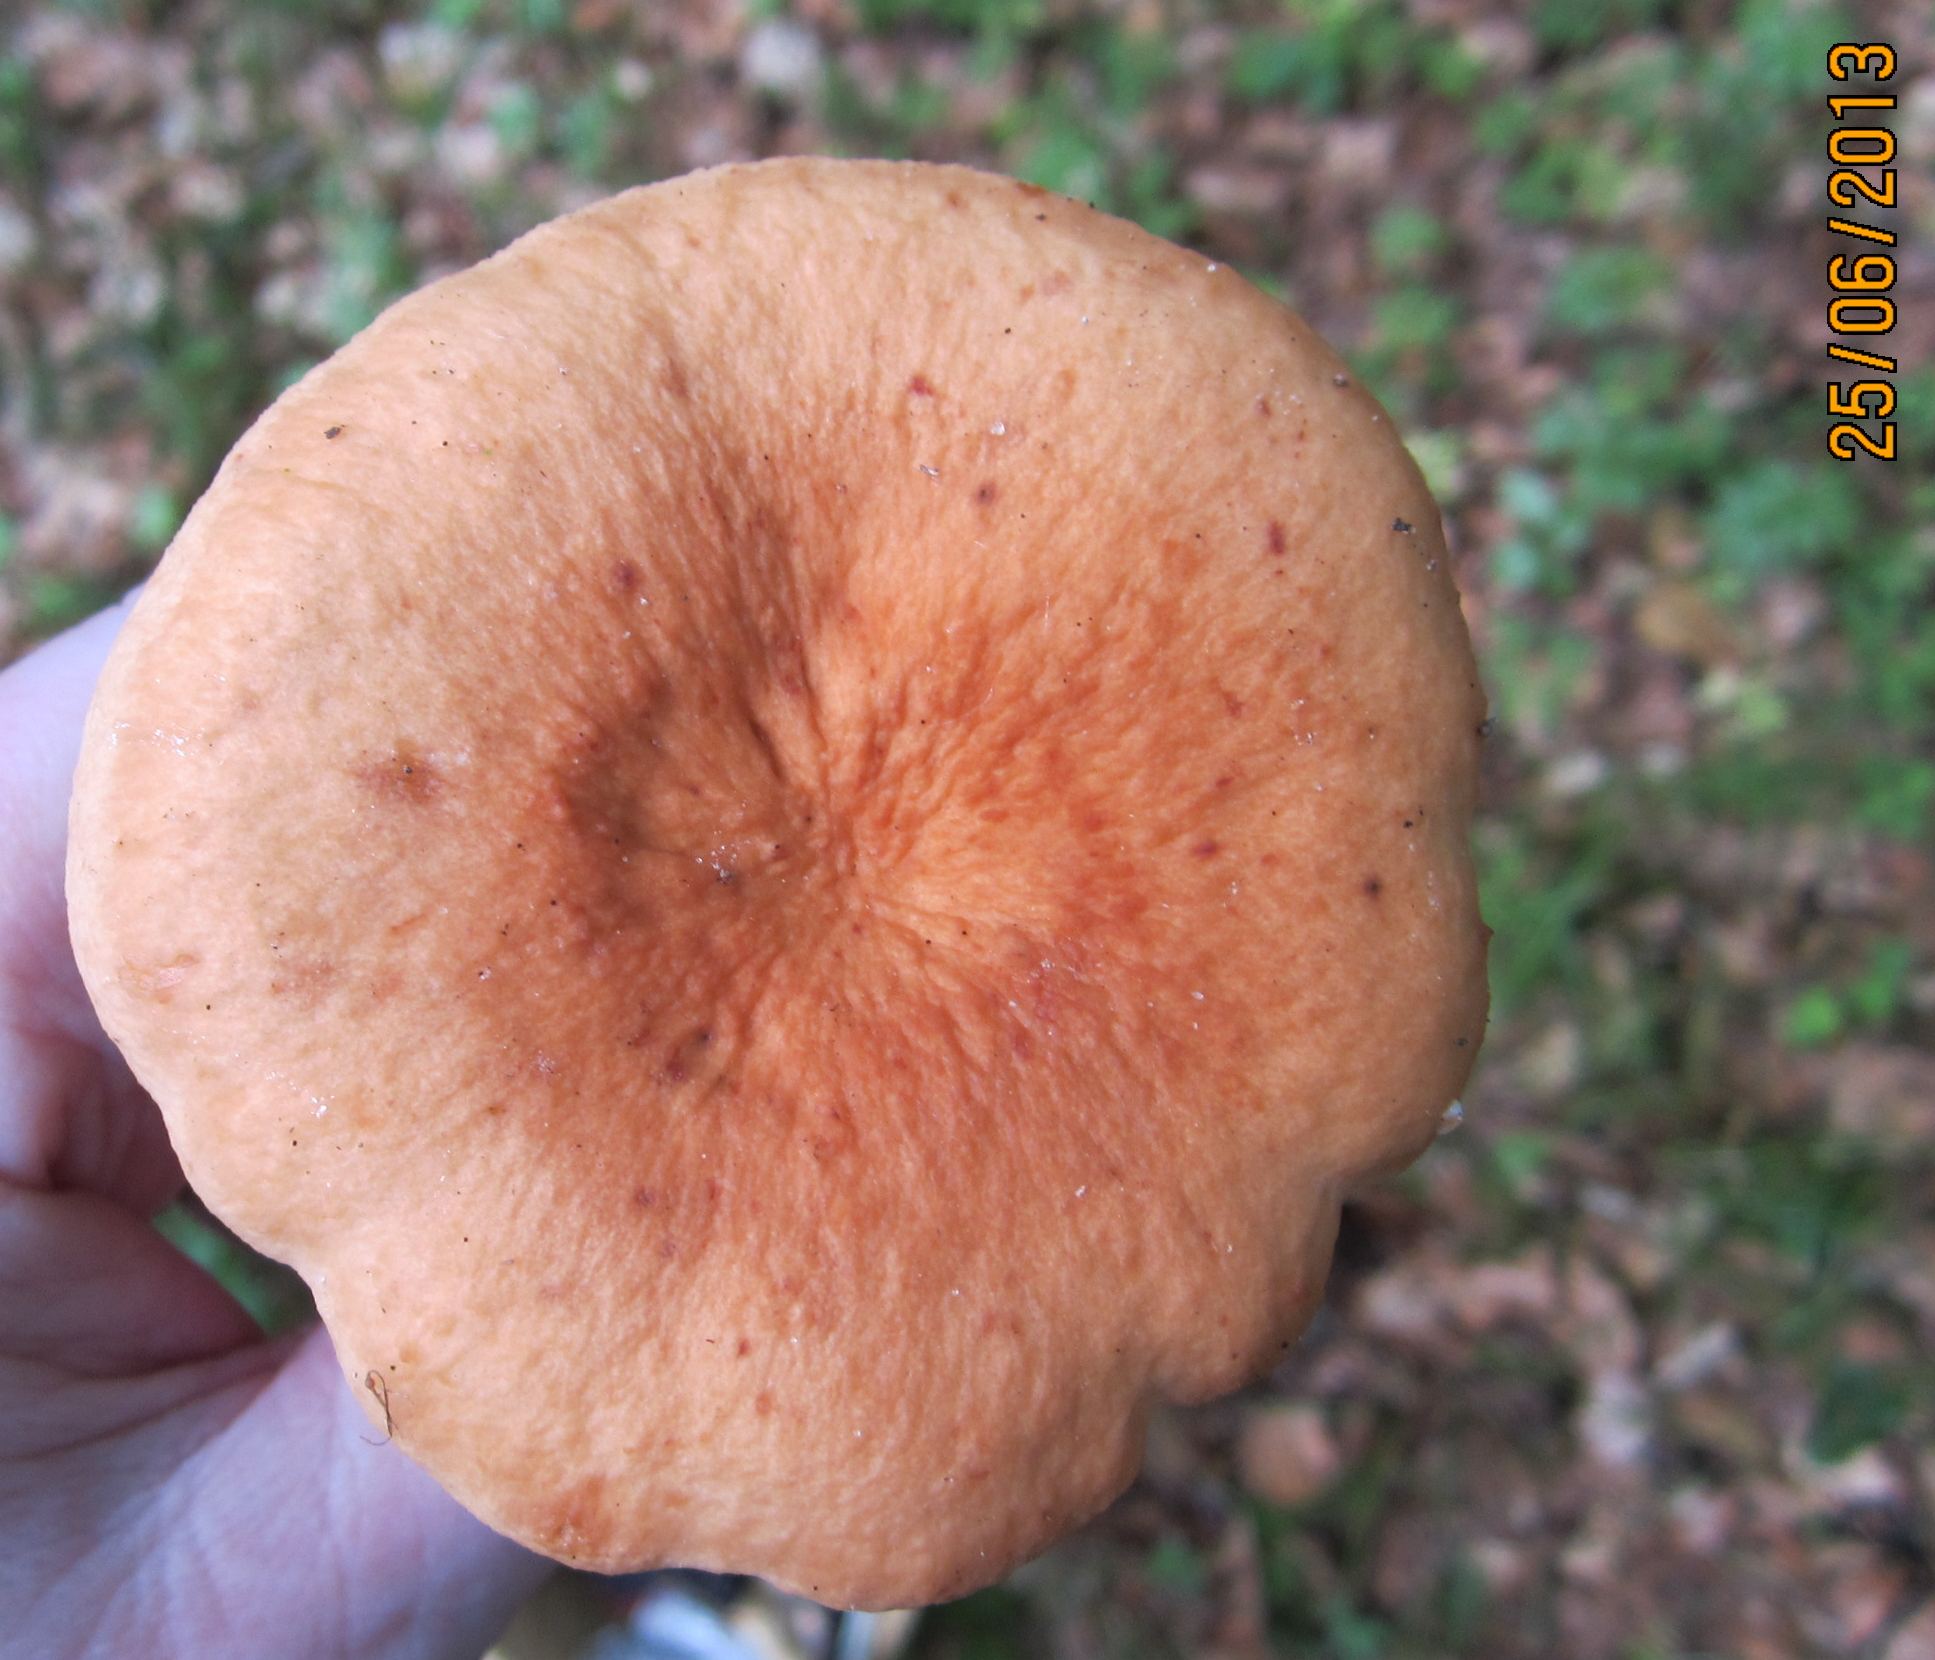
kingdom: Fungi
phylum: Basidiomycota
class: Agaricomycetes
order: Russulales
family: Russulaceae
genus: Lactarius
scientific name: Lactarius rubrocinctus
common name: halsbånd-mælkehat
